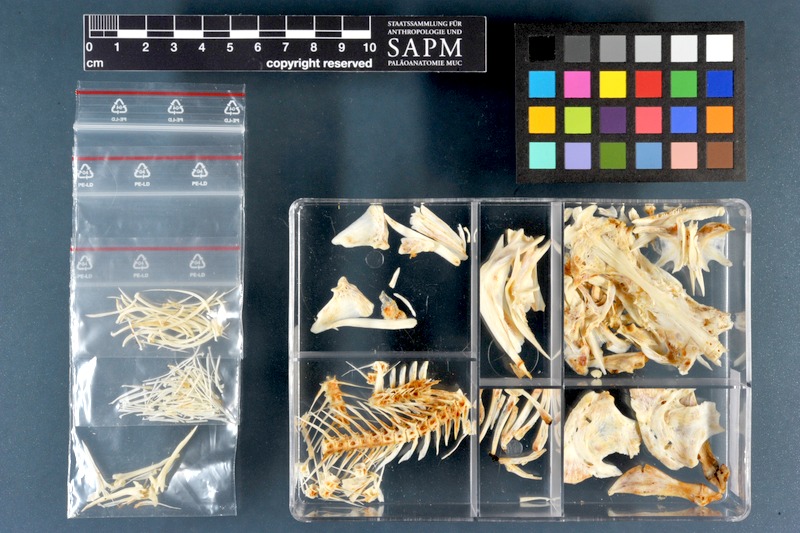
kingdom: Animalia
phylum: Chordata
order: Siluriformes
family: Ictaluridae
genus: Ameiurus
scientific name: Ameiurus nebulosus
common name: Brown bullhead
